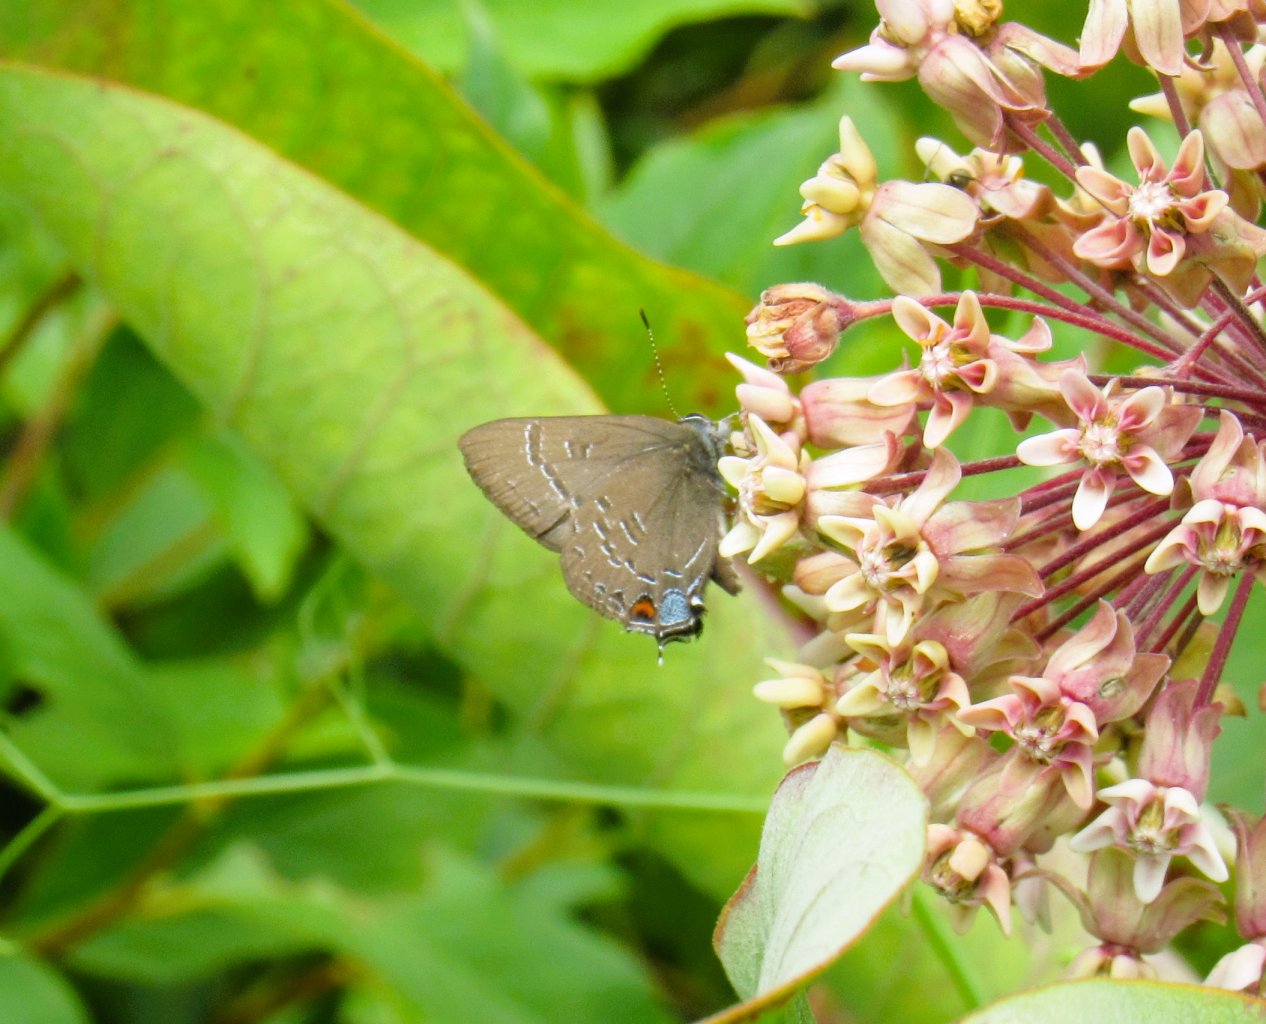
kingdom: Animalia
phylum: Arthropoda
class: Insecta
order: Lepidoptera
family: Lycaenidae
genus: Satyrium
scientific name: Satyrium calanus
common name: Banded Hairstreak
